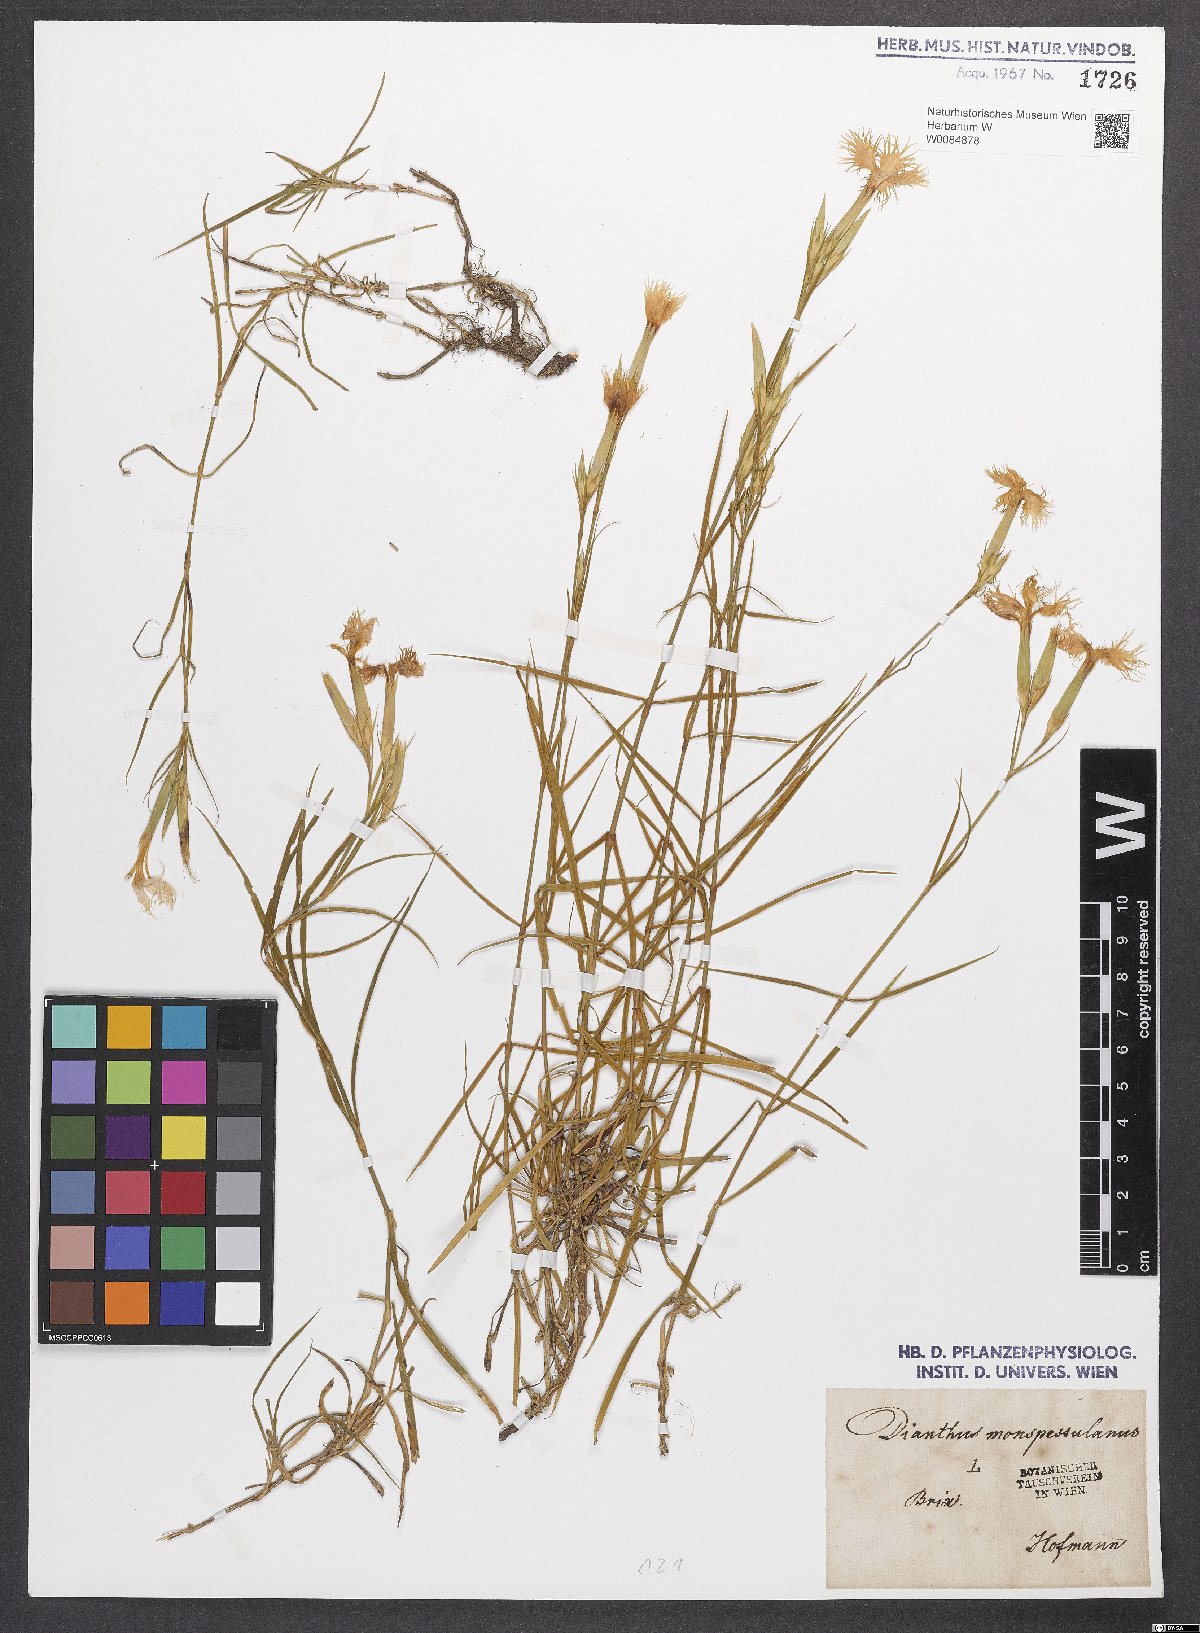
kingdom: Plantae
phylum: Tracheophyta
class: Magnoliopsida
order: Caryophyllales
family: Caryophyllaceae
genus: Dianthus
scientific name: Dianthus hyssopifolius
